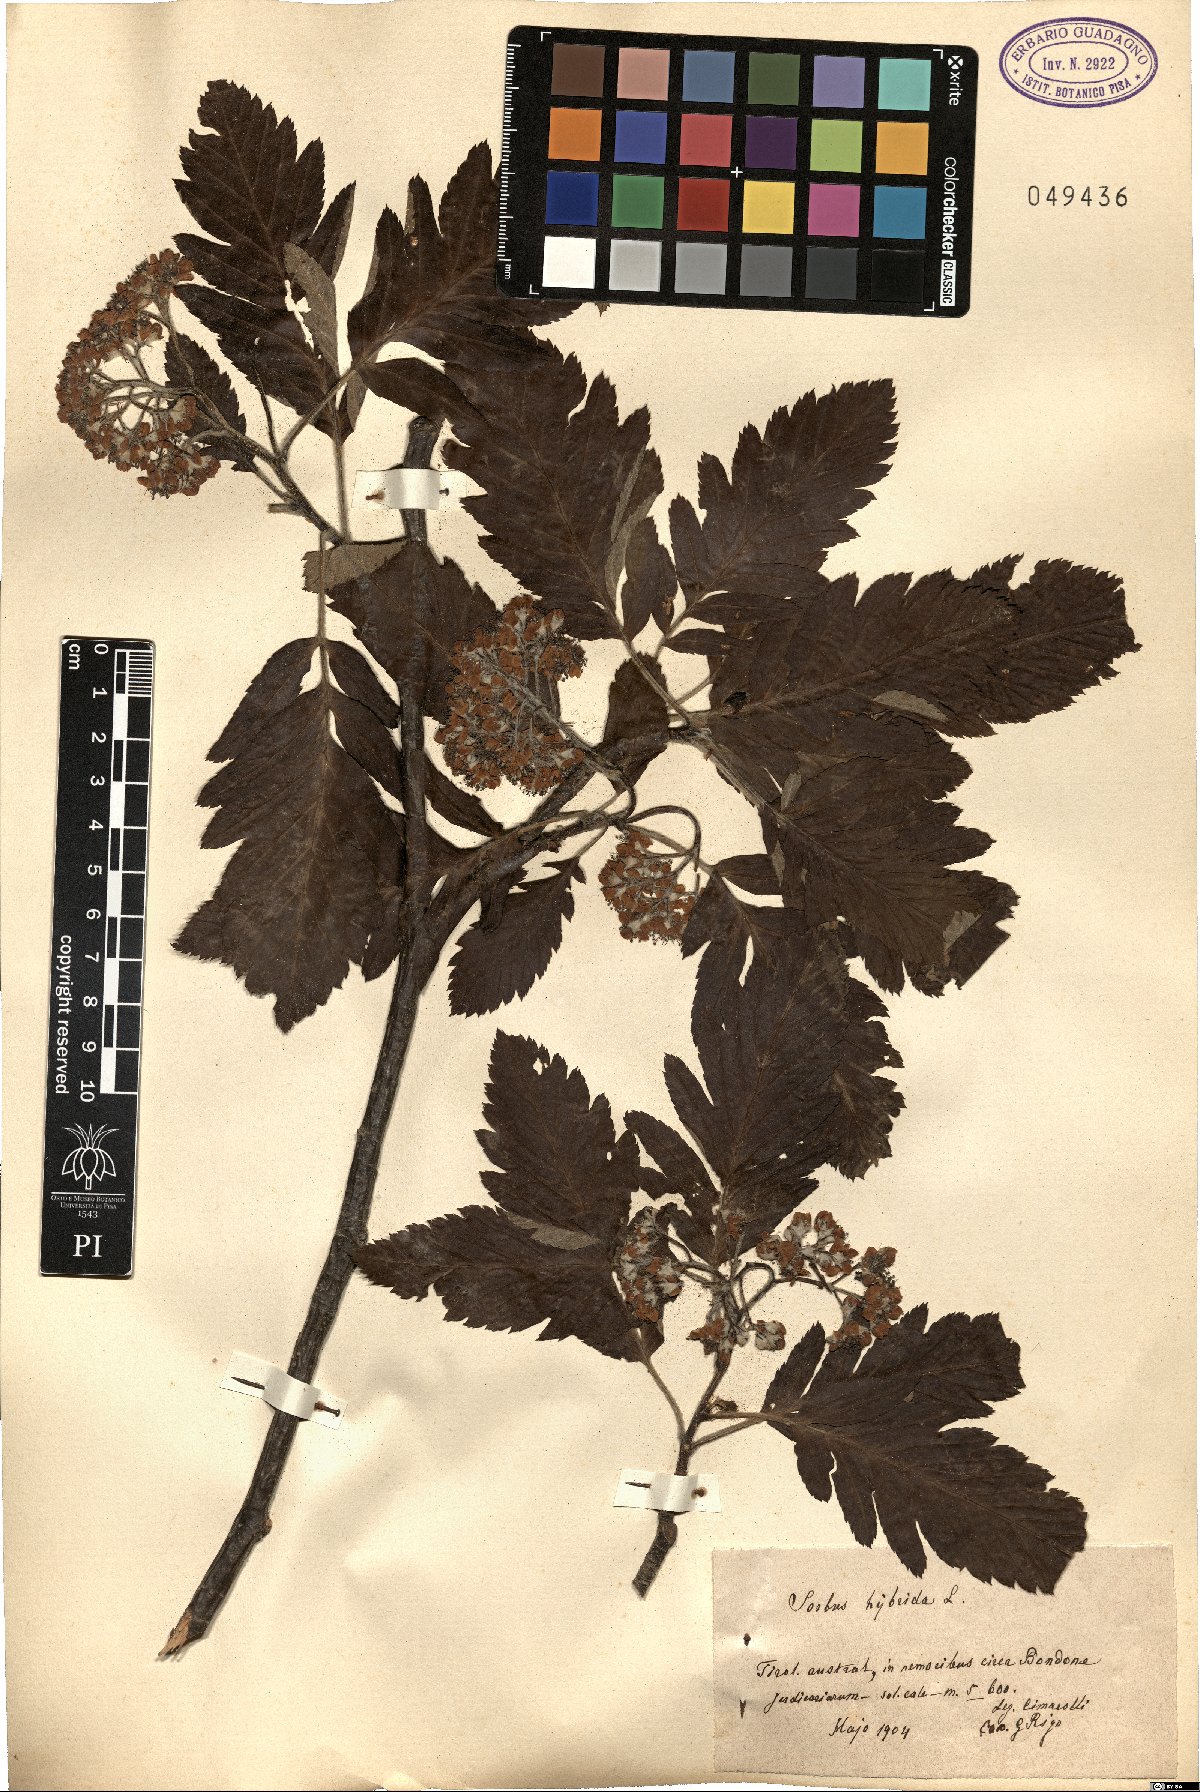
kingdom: Plantae
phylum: Tracheophyta
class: Magnoliopsida
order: Rosales
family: Rosaceae
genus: Hedlundia
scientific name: Hedlundia hybrida
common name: Swedish service-tree
